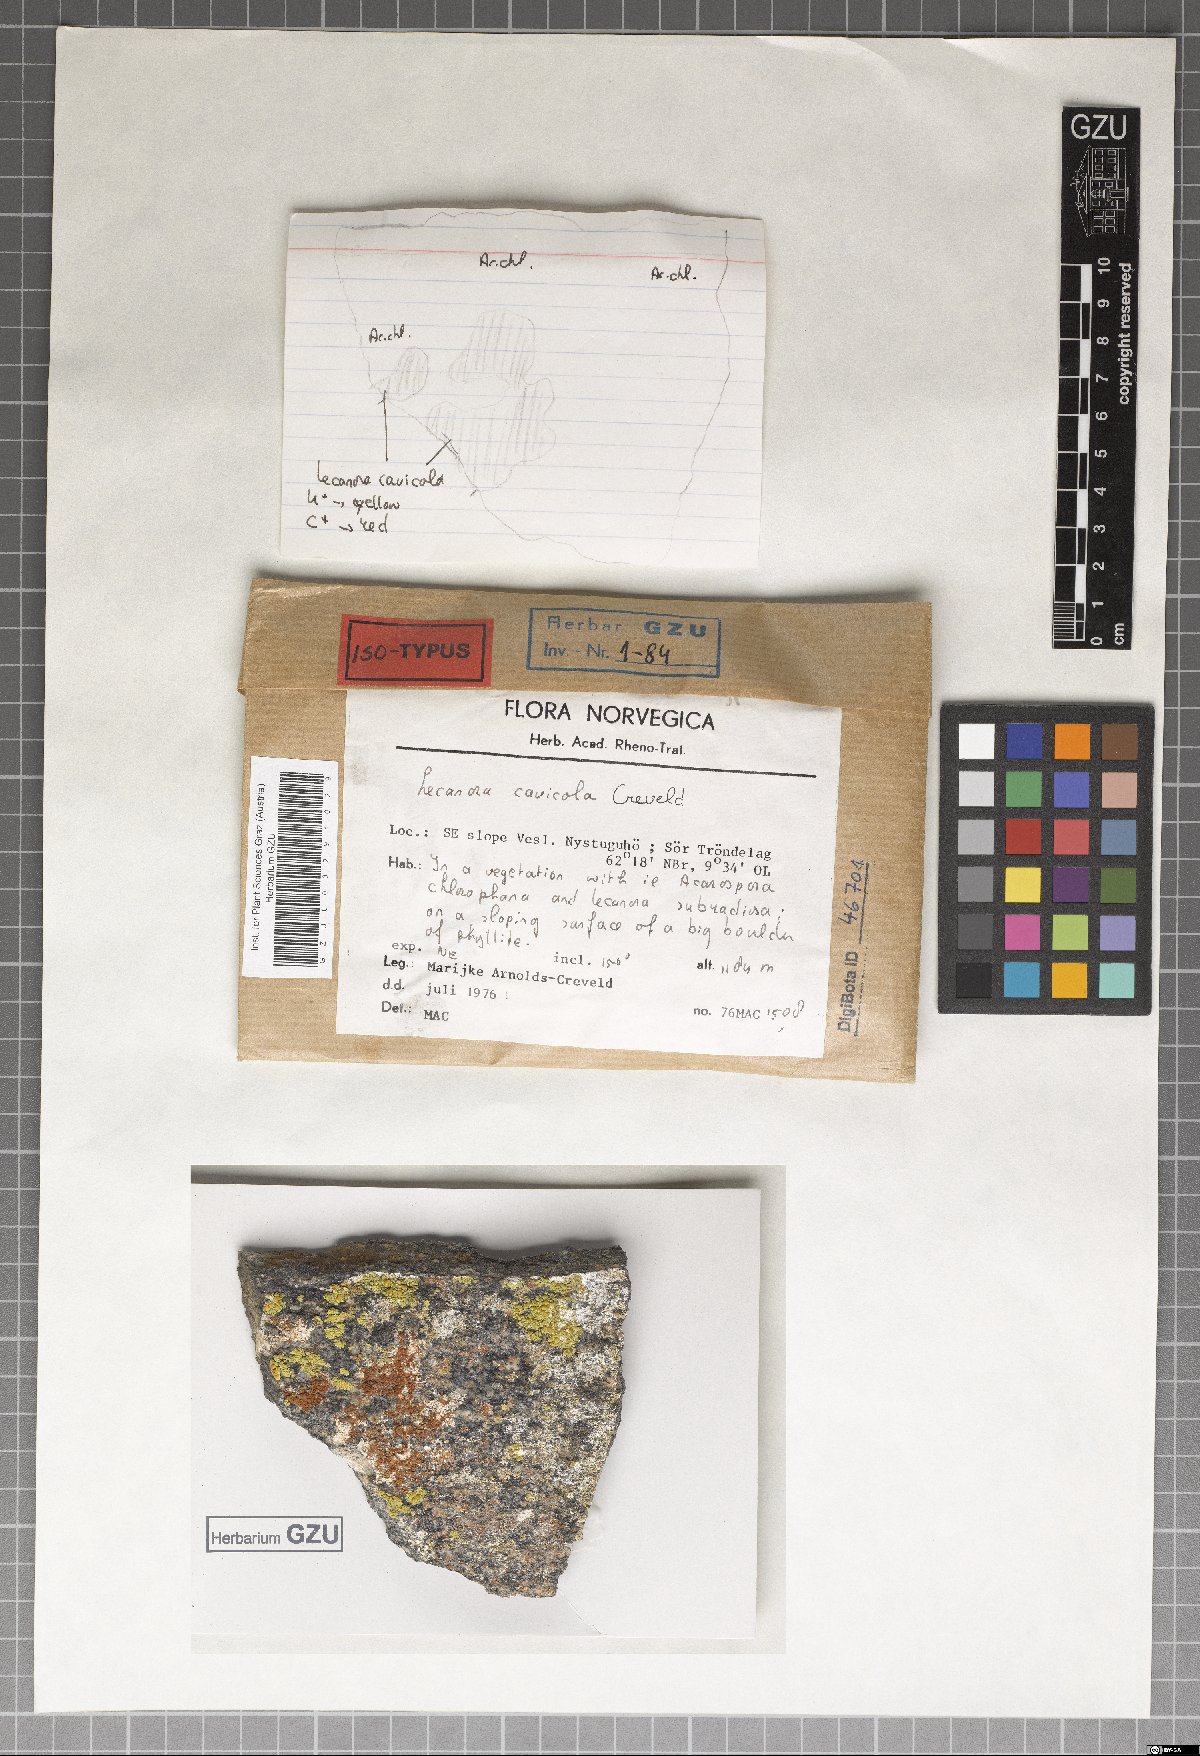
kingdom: Fungi
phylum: Ascomycota
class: Lecanoromycetes
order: Lecanorales
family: Lecanoraceae
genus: Lecanora
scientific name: Lecanora cavicola
